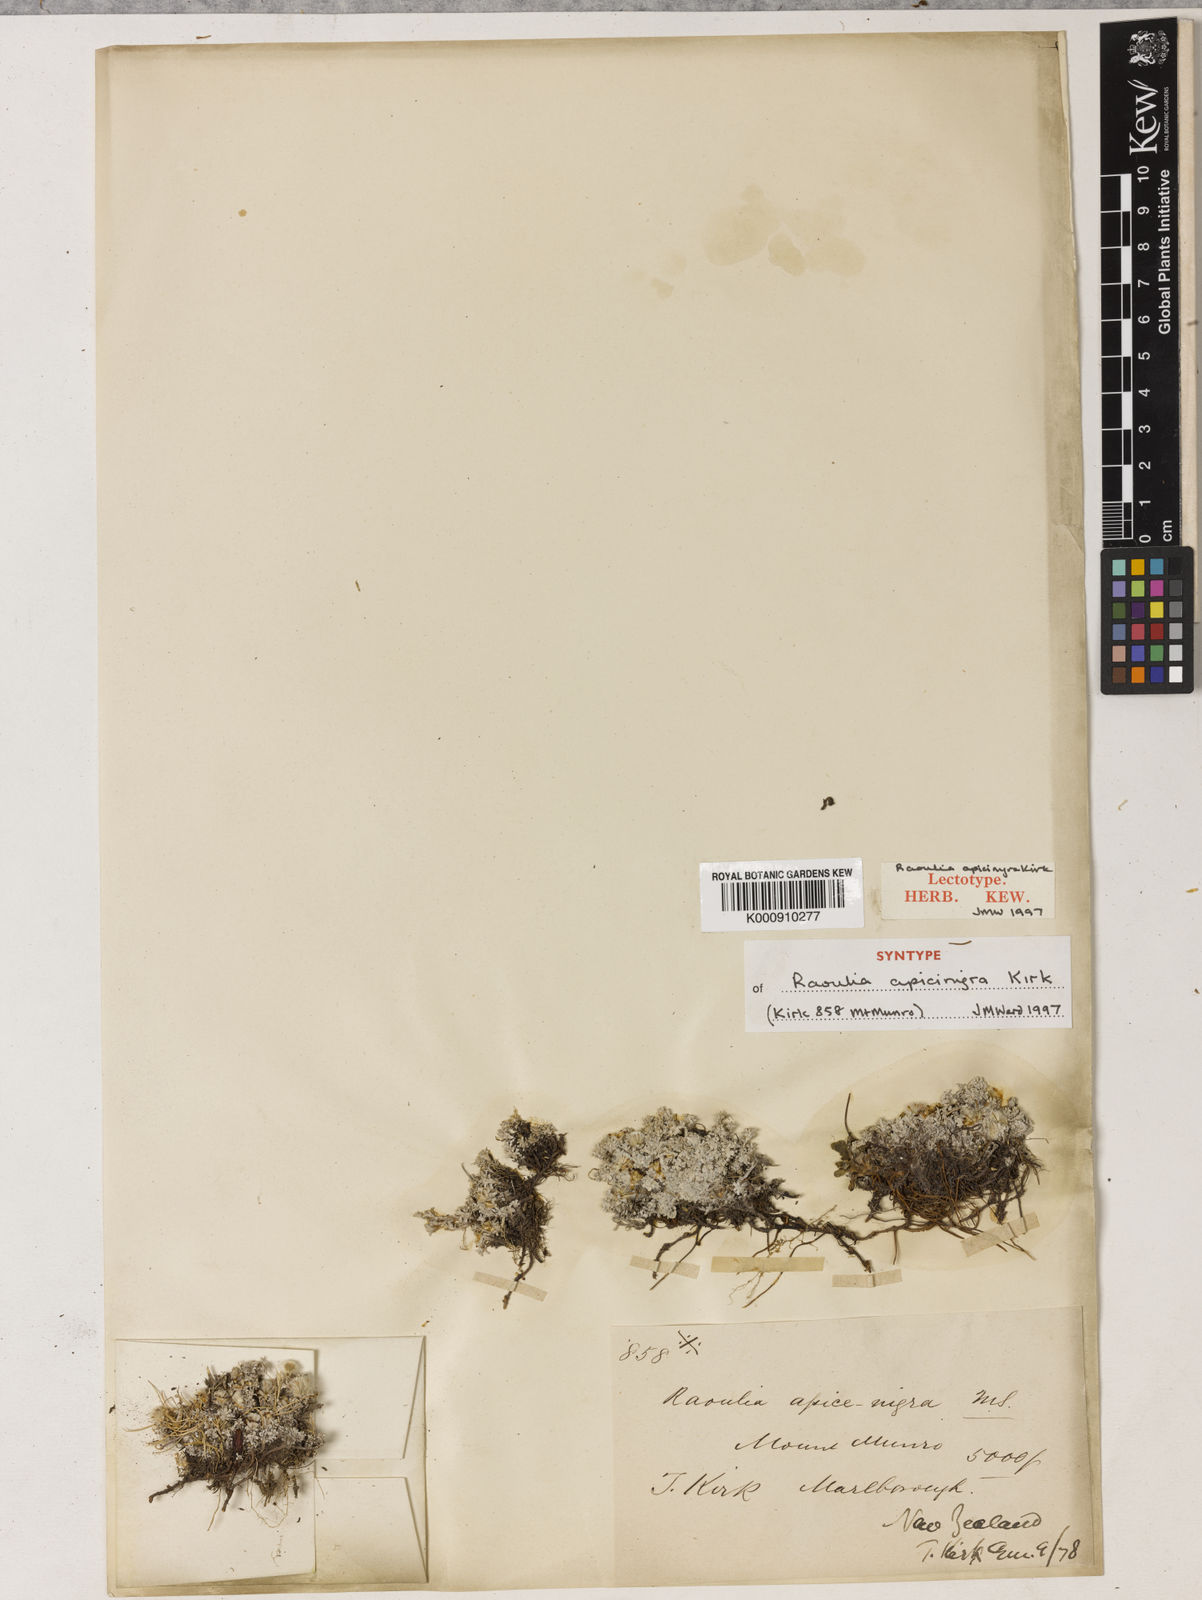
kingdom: Plantae
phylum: Tracheophyta
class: Magnoliopsida
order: Asterales
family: Asteraceae
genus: Raoulia
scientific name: Raoulia apice-nigra
